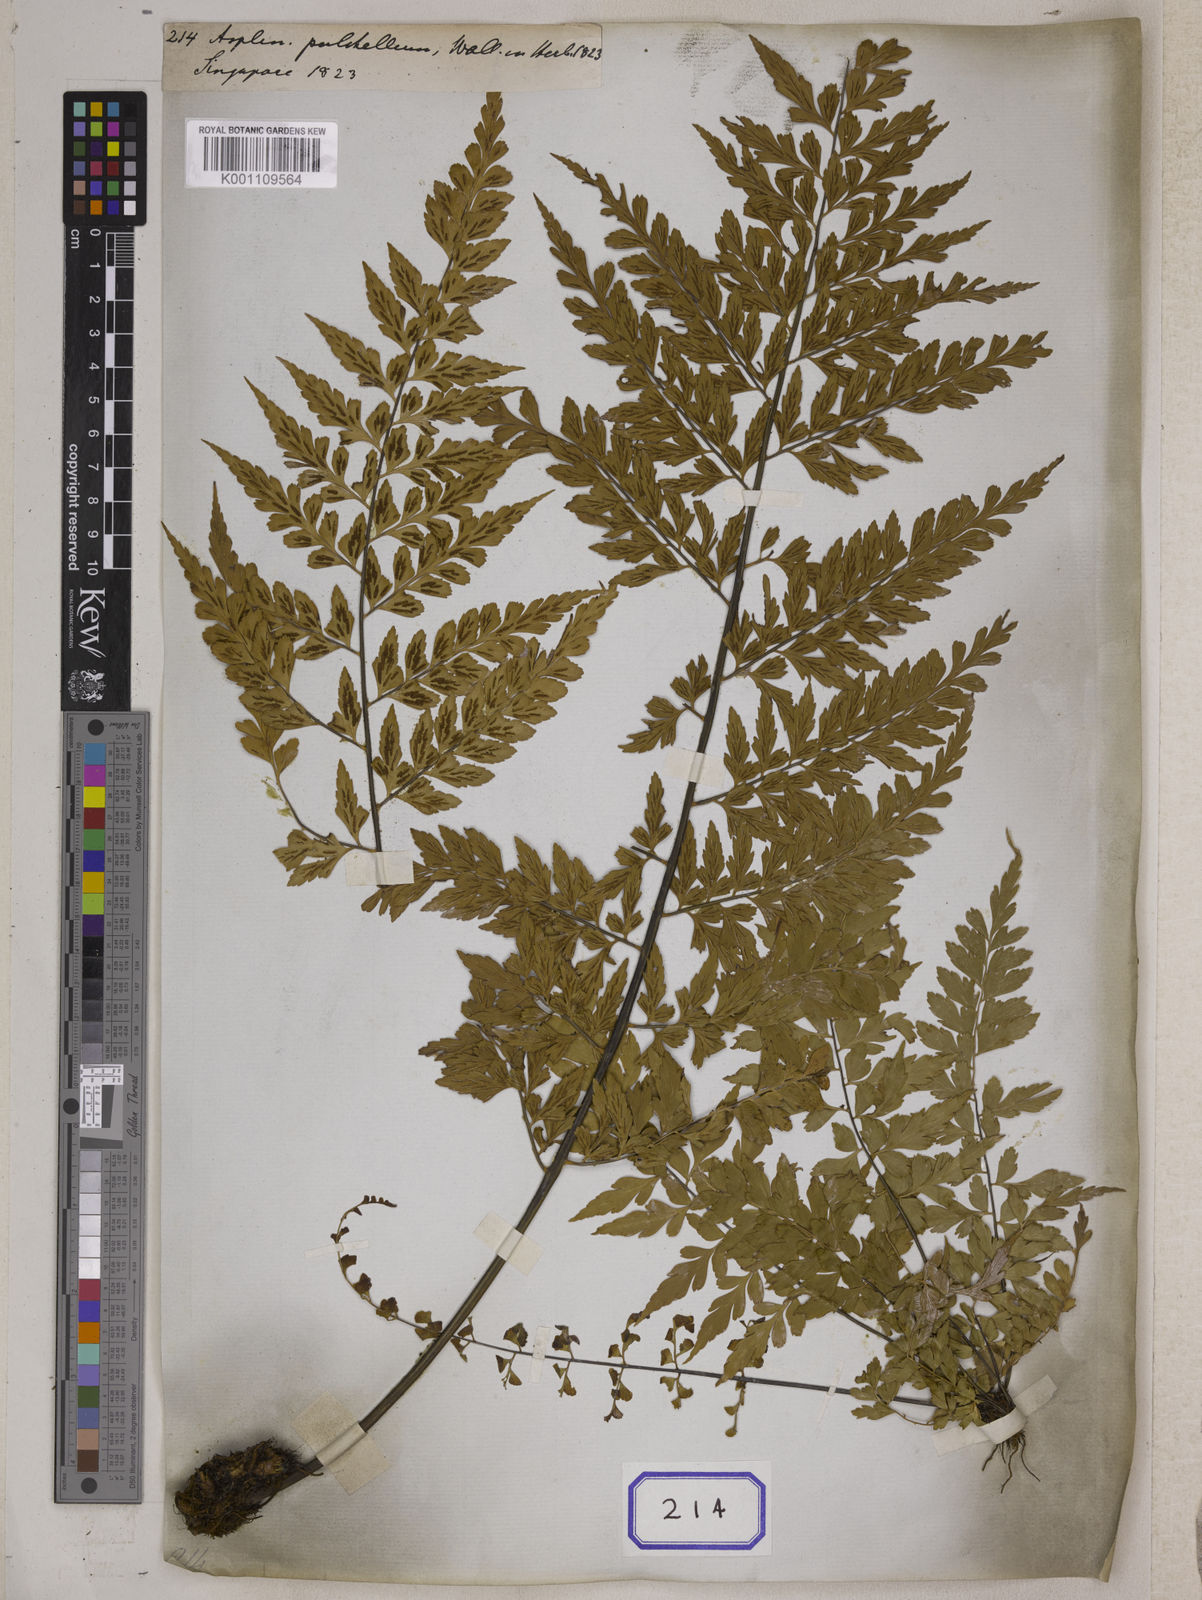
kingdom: Plantae
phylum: Tracheophyta
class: Polypodiopsida
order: Polypodiales
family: Aspleniaceae
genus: Asplenium
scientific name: Asplenium nitidum
